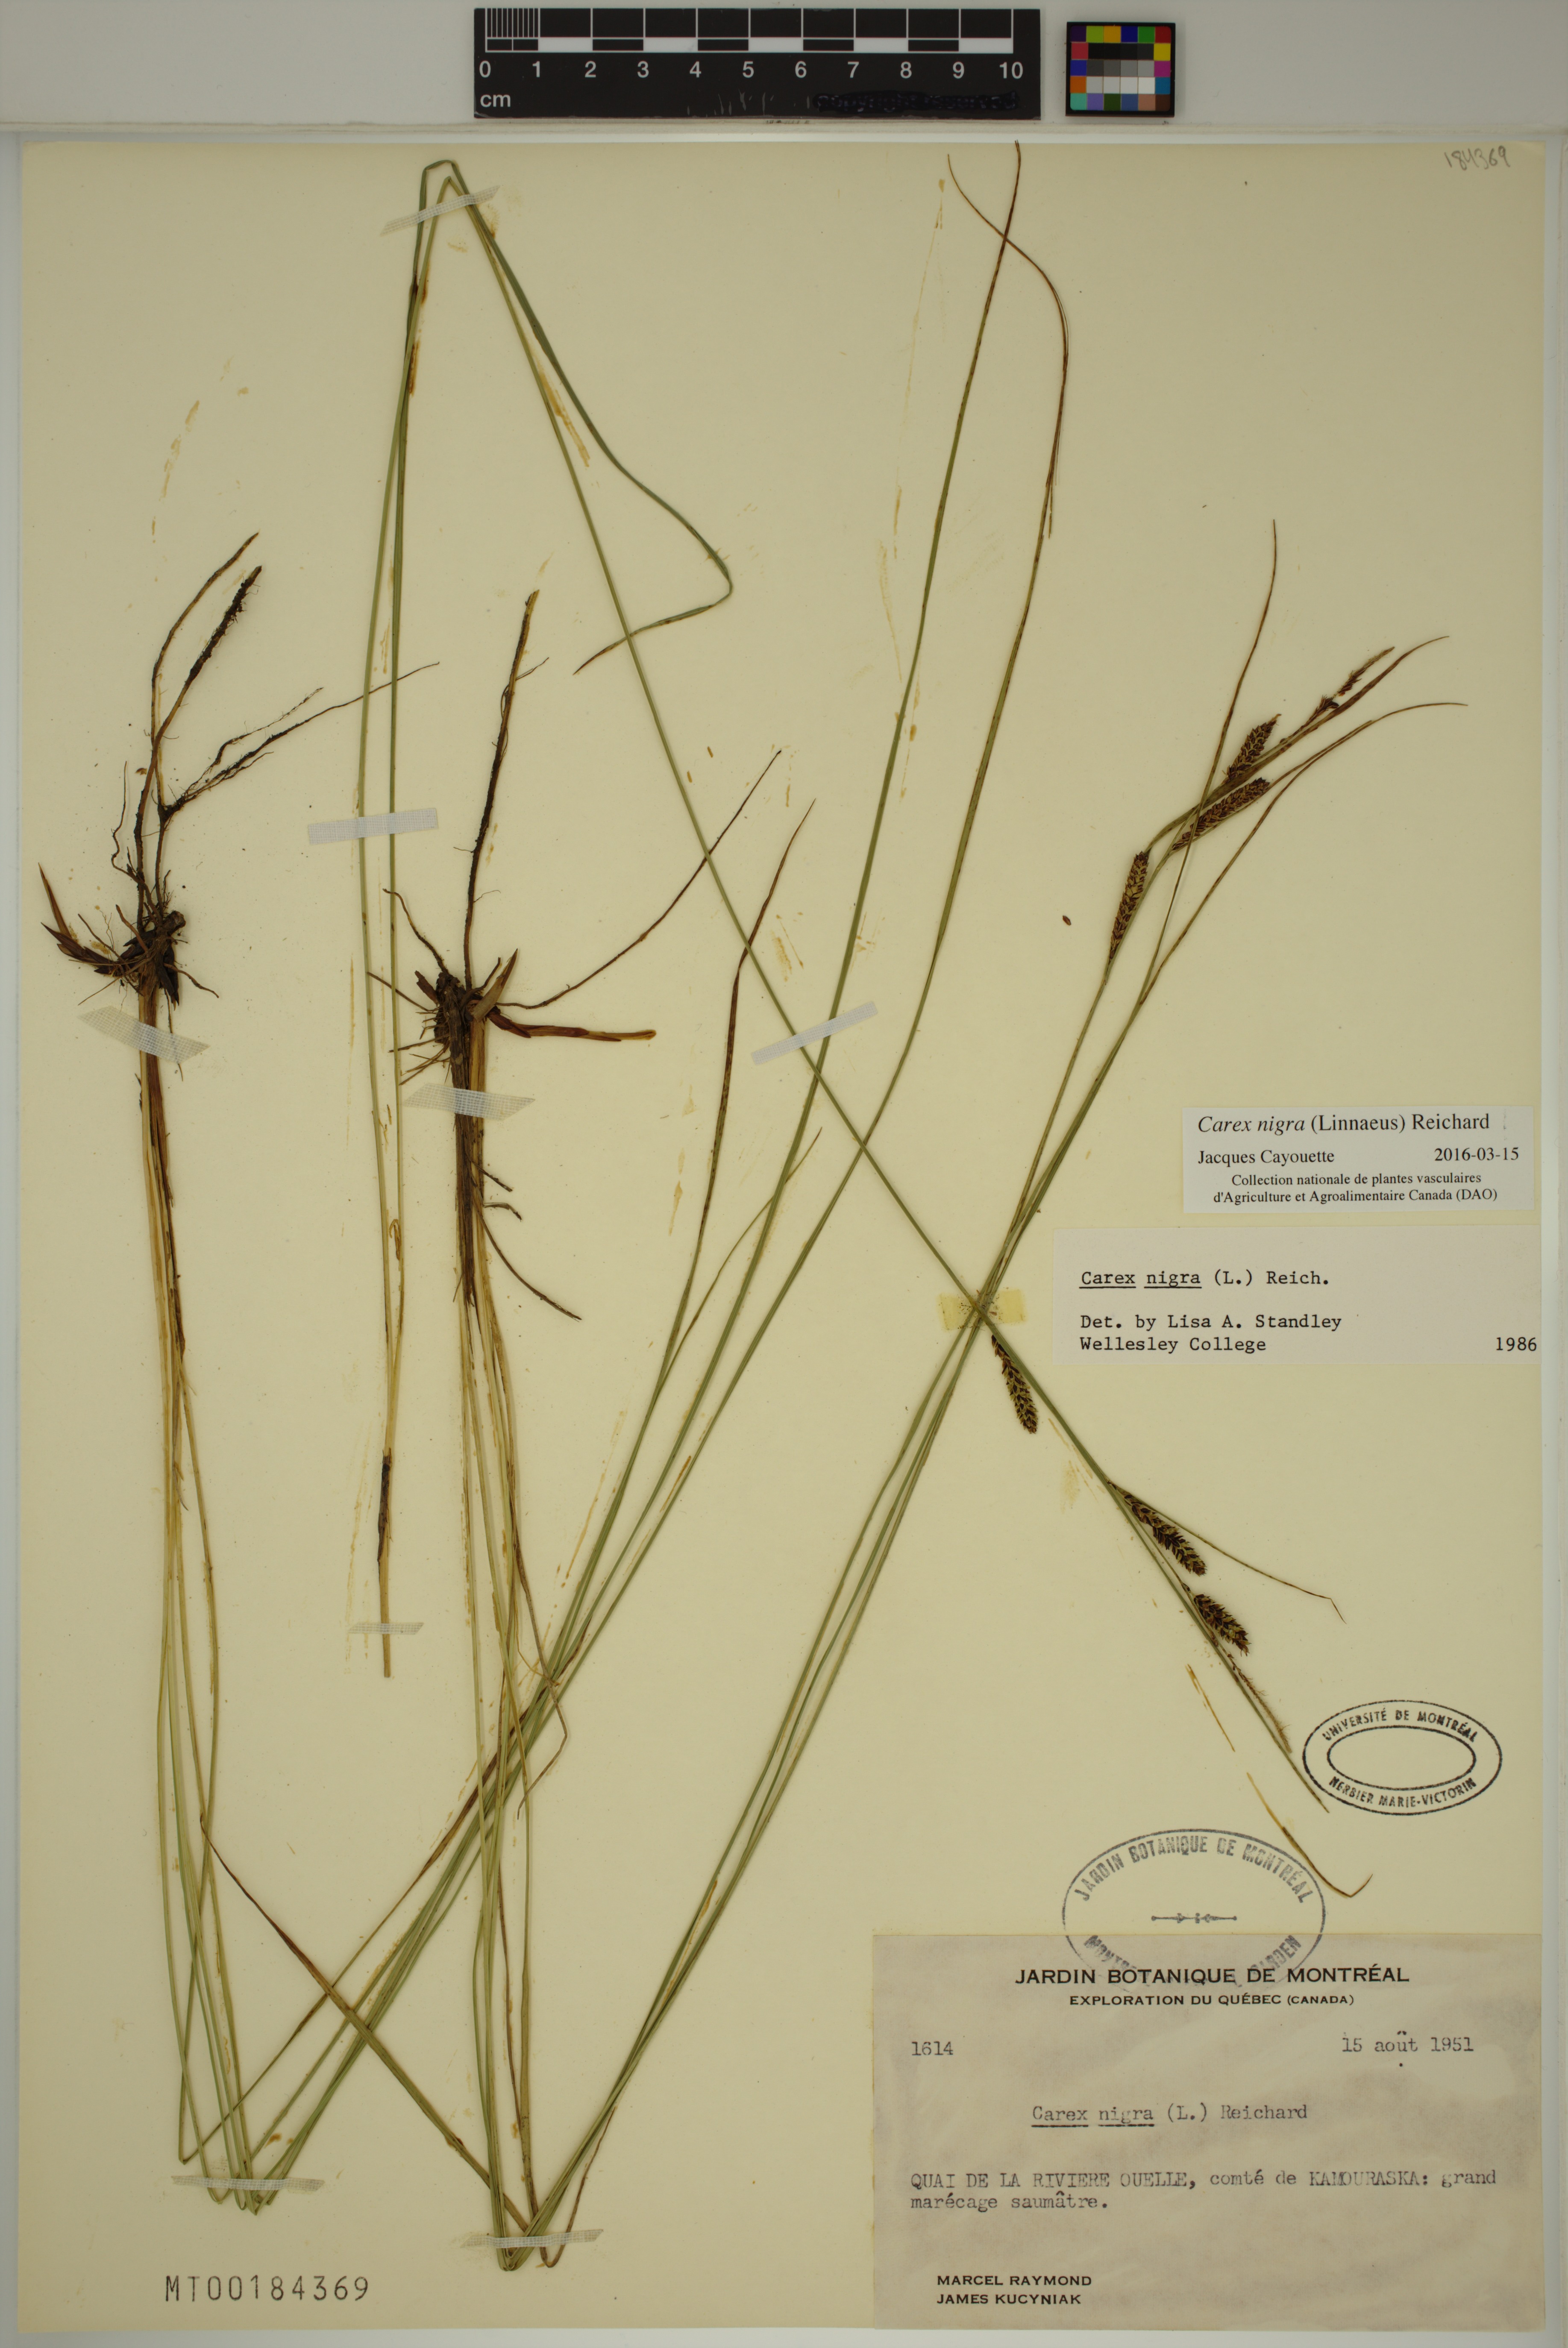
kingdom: Plantae
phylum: Tracheophyta
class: Liliopsida
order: Poales
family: Cyperaceae
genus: Carex
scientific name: Carex nigra
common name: Common sedge
